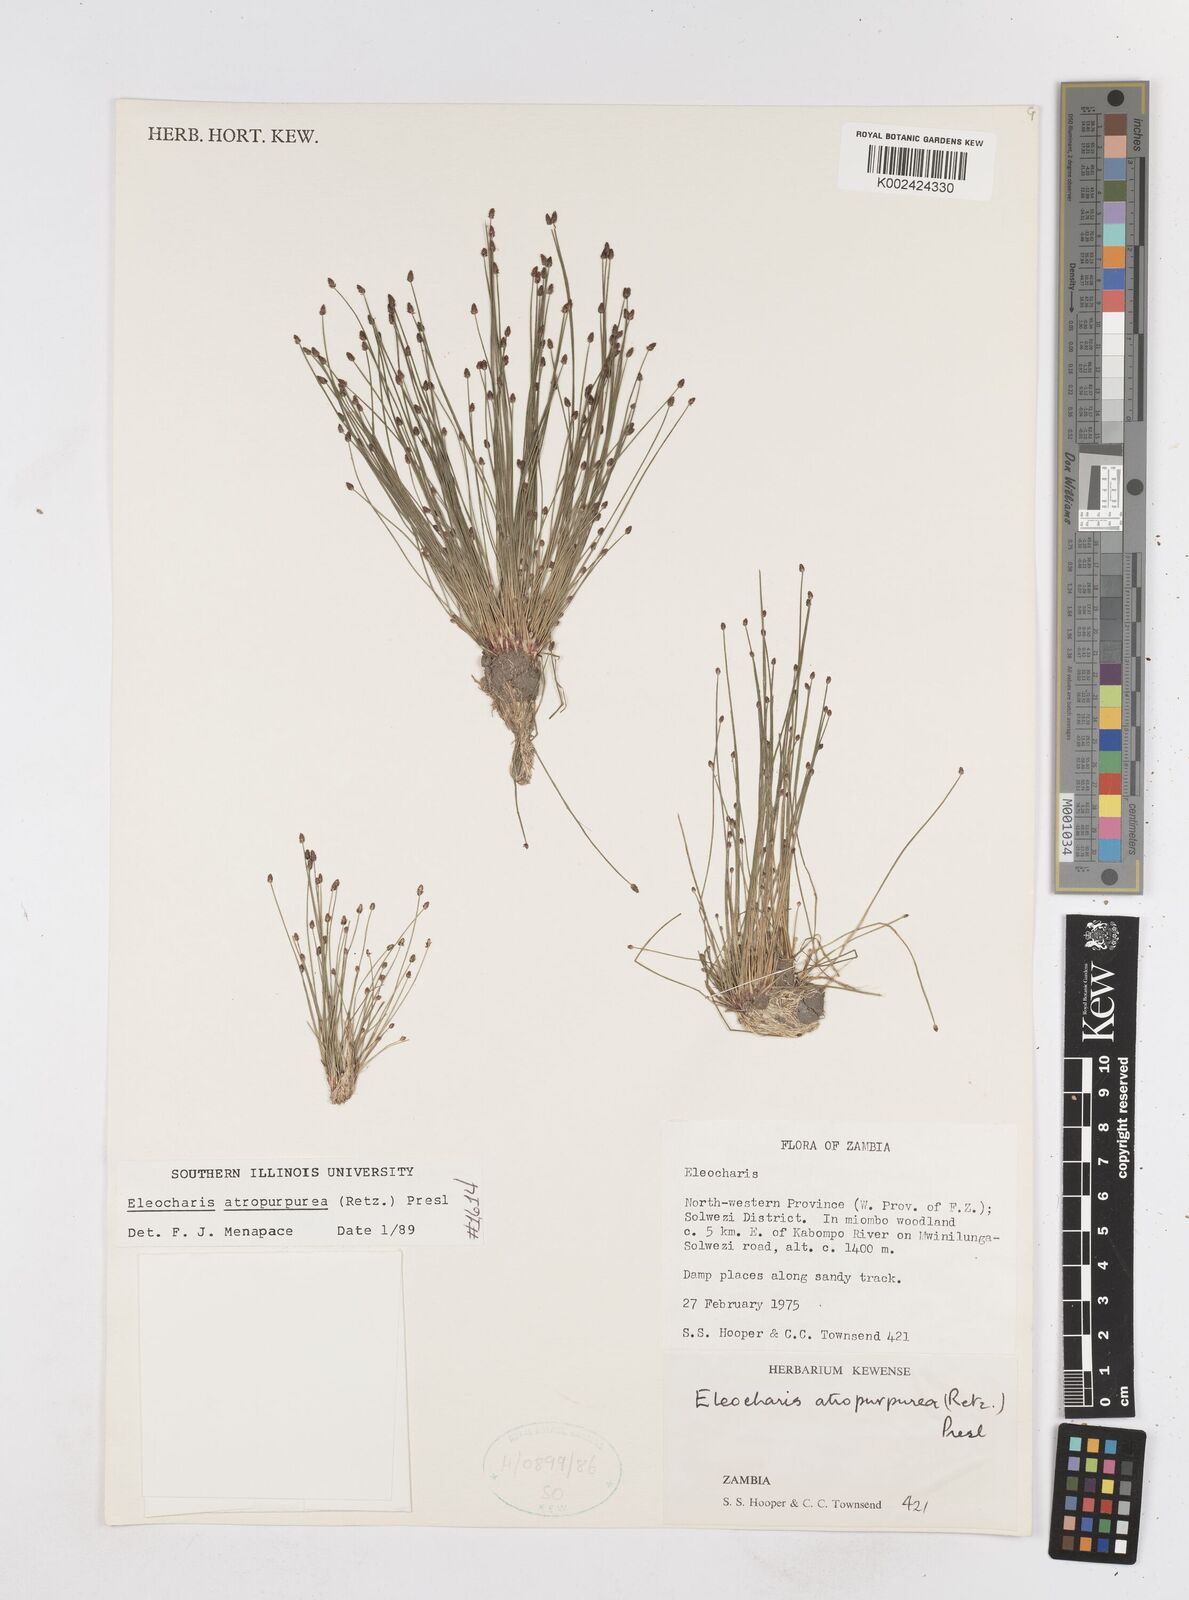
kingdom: Plantae
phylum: Tracheophyta
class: Liliopsida
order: Poales
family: Cyperaceae
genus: Eleocharis
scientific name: Eleocharis atropurpurea
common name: Purple spikerush
